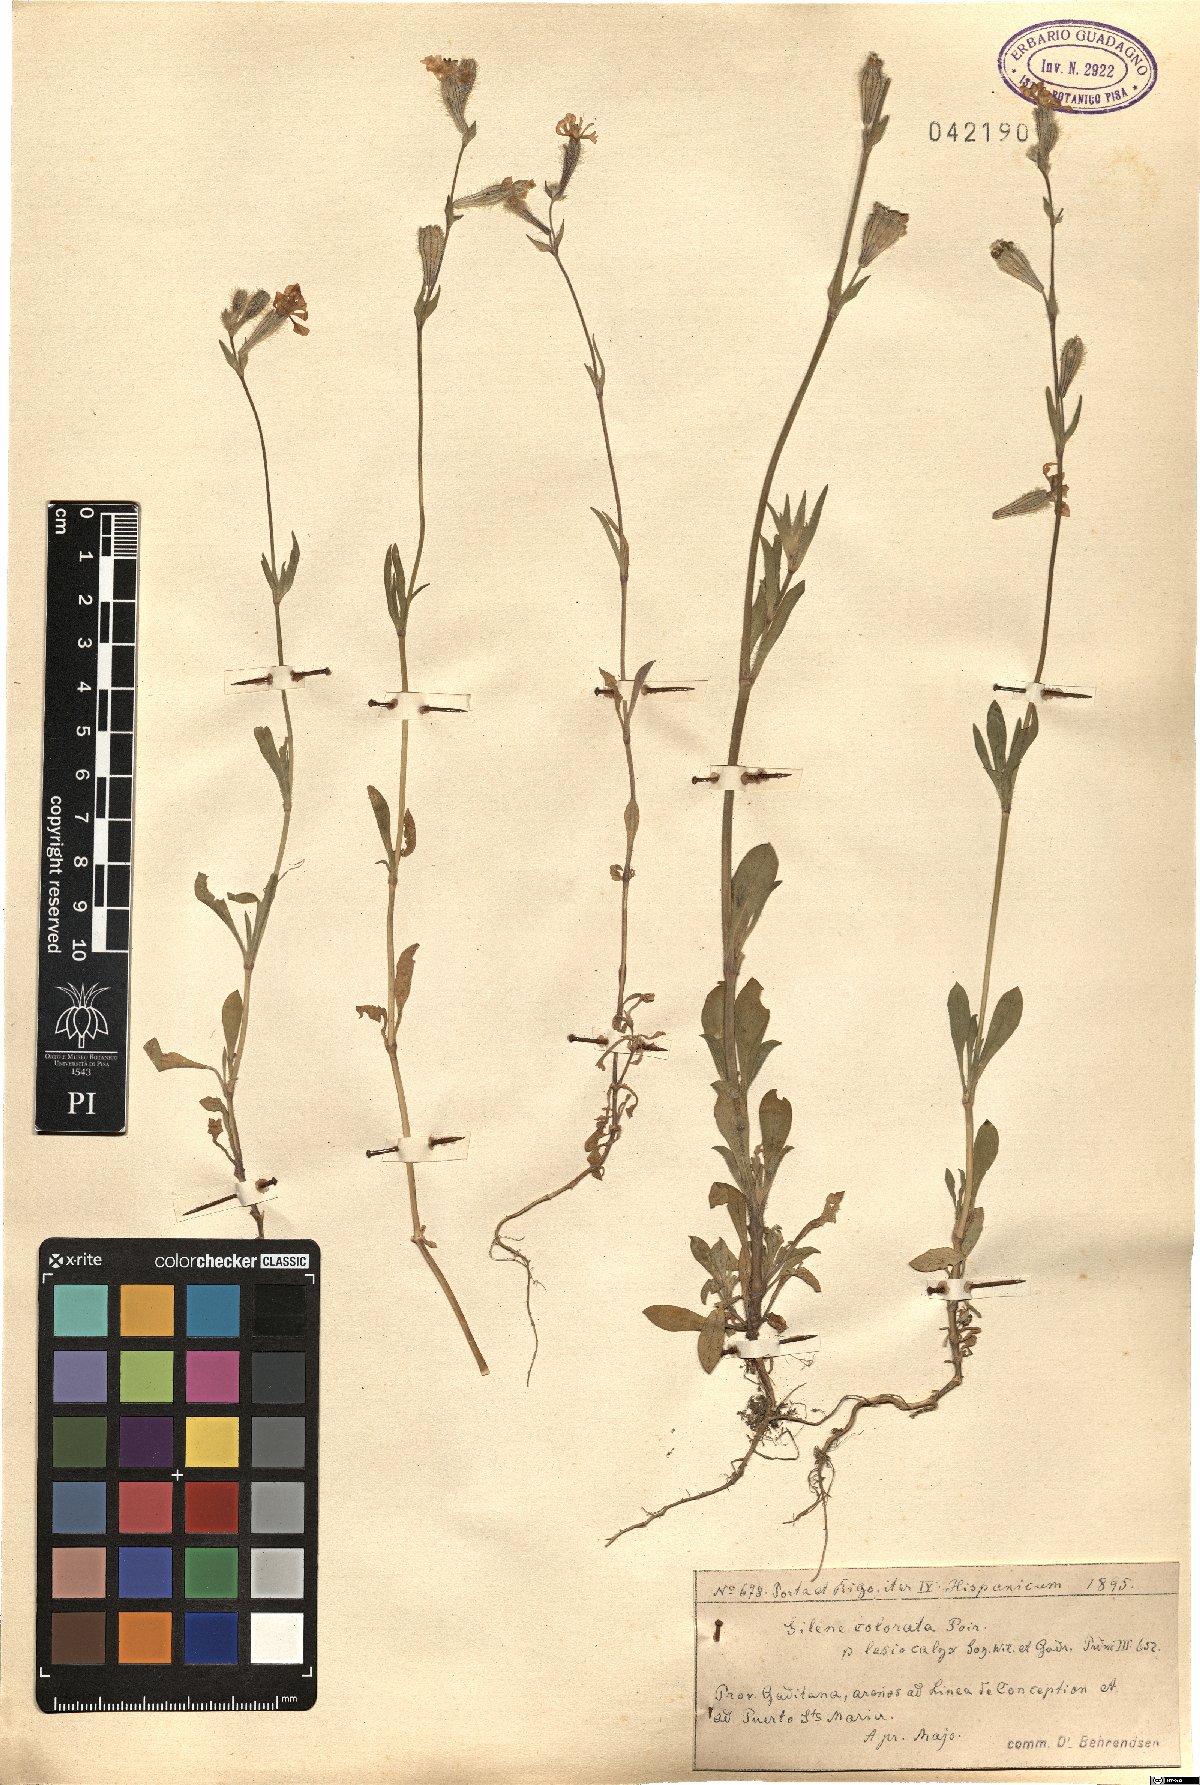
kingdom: Plantae
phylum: Tracheophyta
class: Magnoliopsida
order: Caryophyllales
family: Caryophyllaceae
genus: Silene
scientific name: Silene colorata
